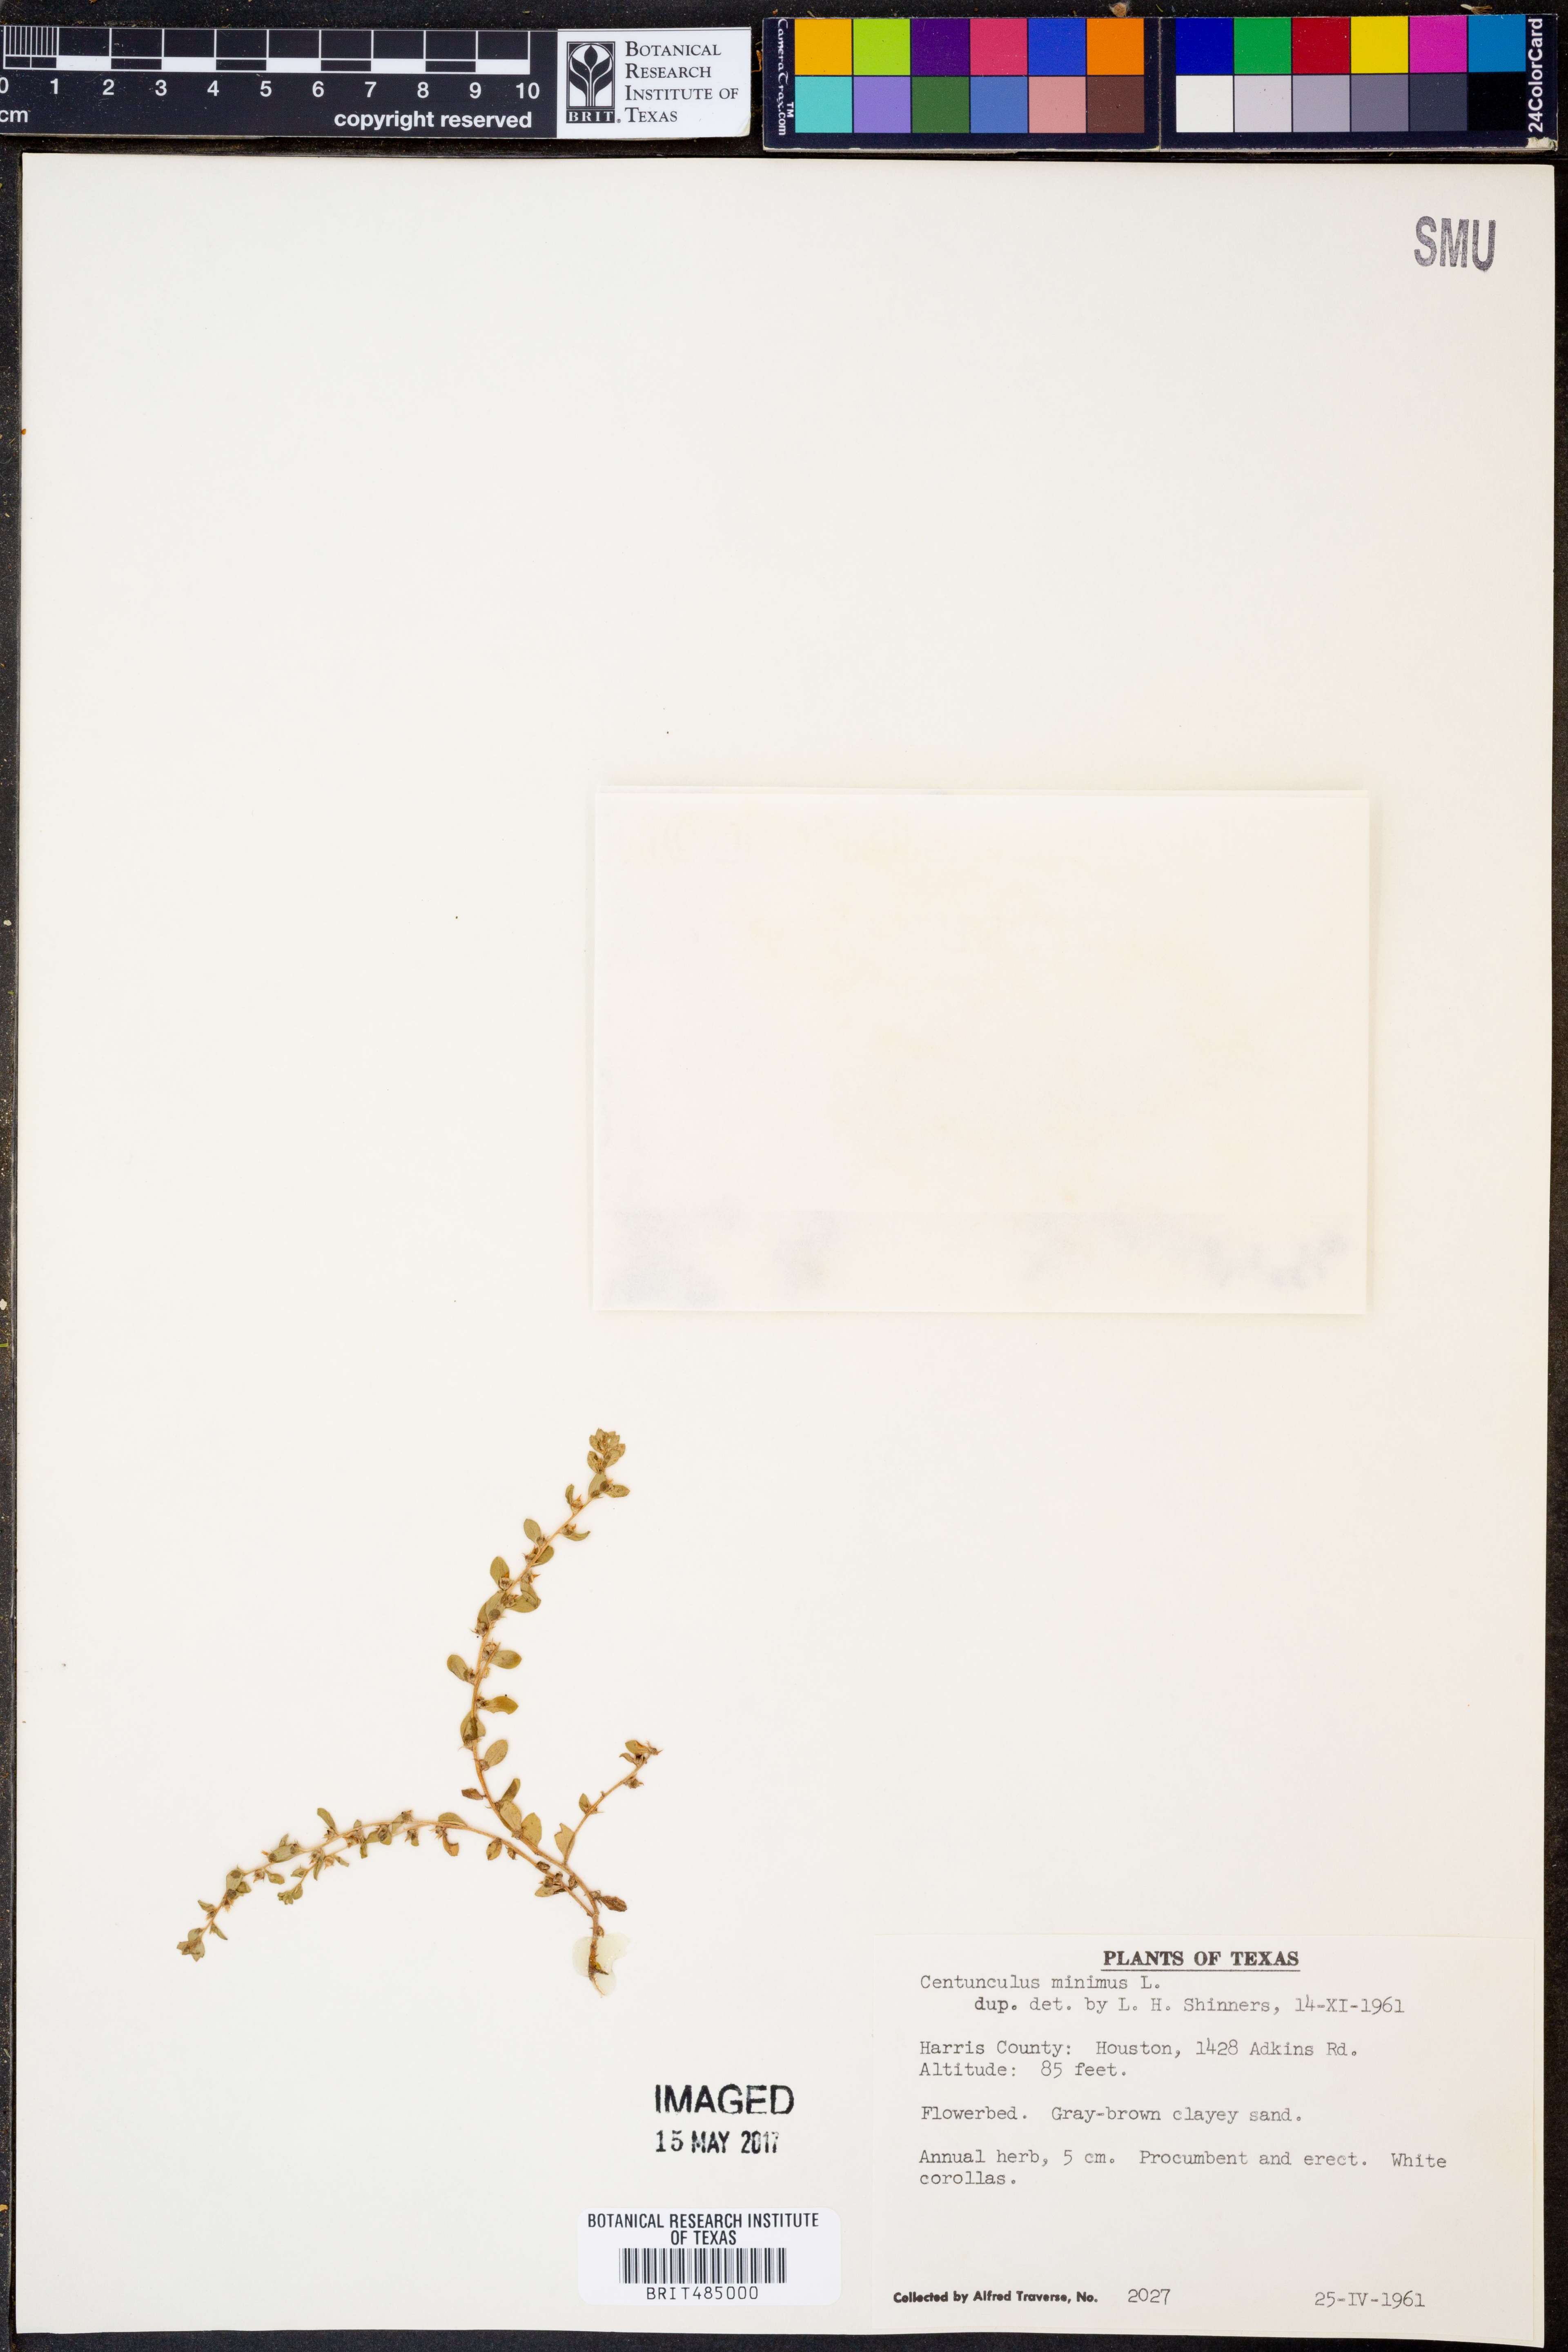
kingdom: Plantae
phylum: Tracheophyta
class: Magnoliopsida
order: Ericales
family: Primulaceae
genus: Lysimachia
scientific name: Lysimachia minima
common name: Chaffweed
